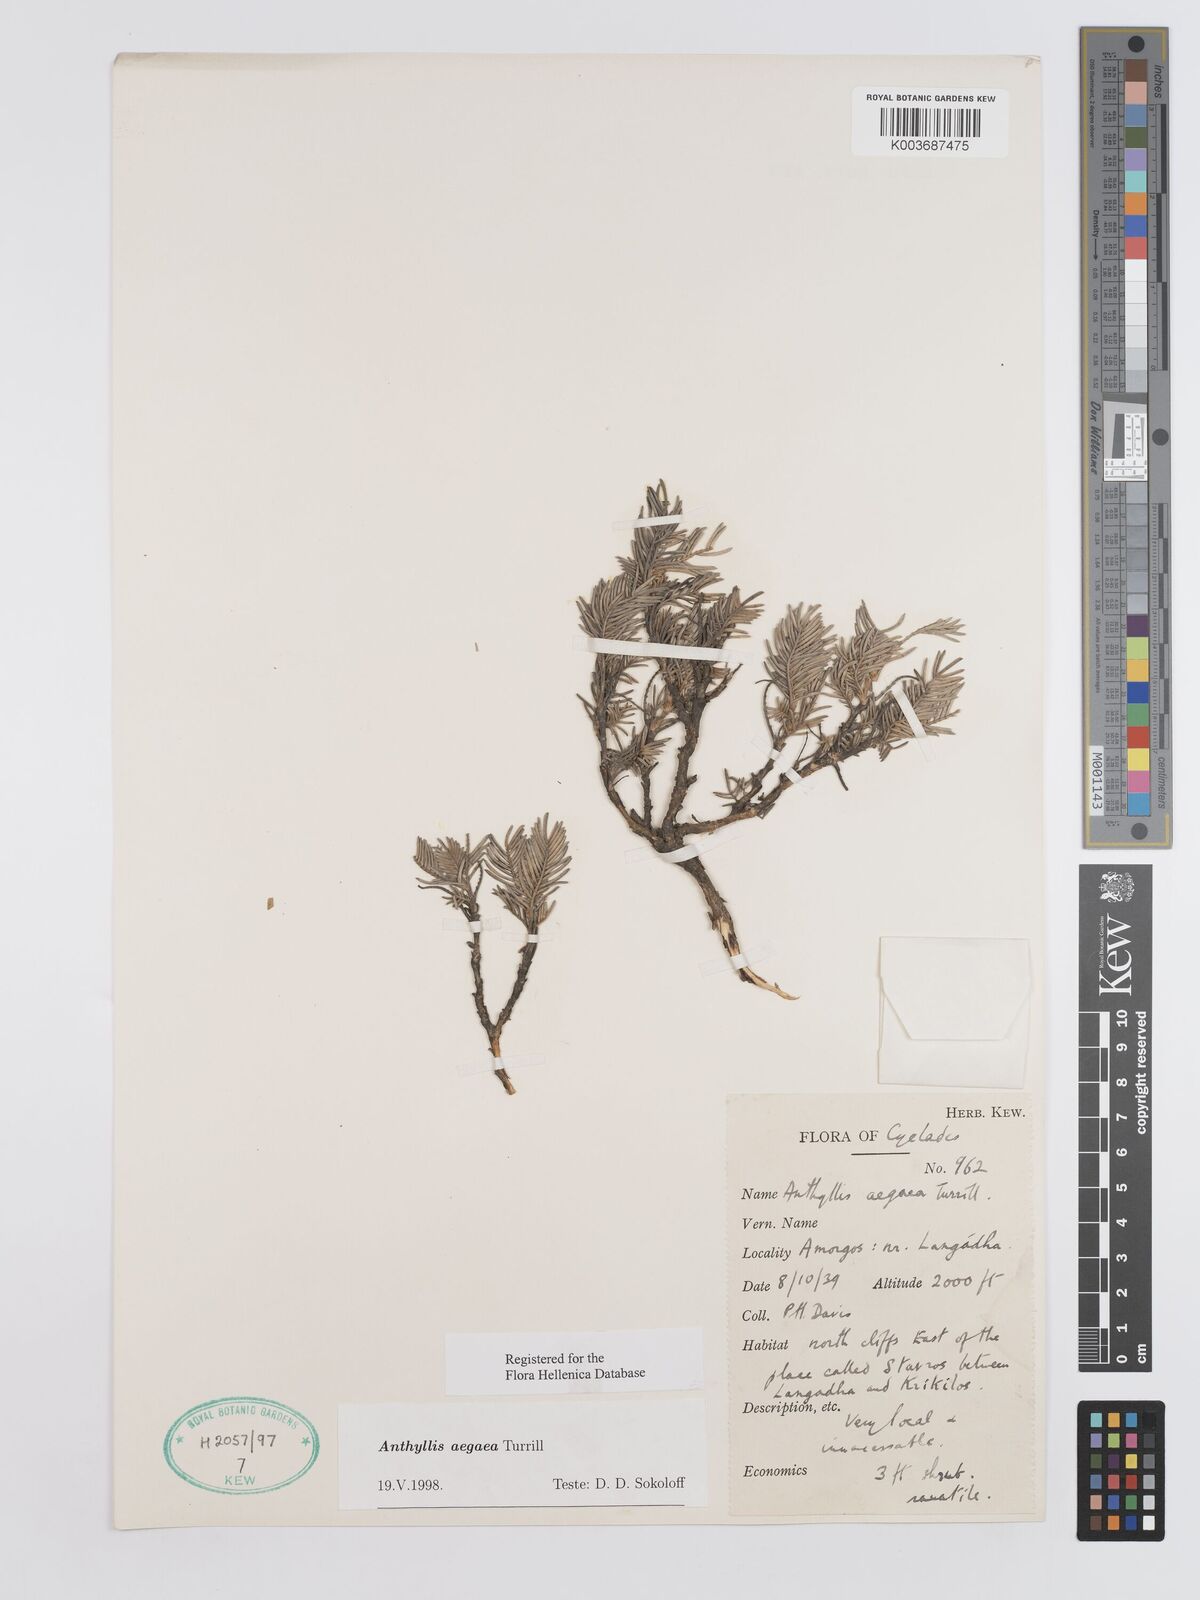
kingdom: Plantae
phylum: Tracheophyta
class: Magnoliopsida
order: Fabales
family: Fabaceae
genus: Anthyllis
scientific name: Anthyllis splendens
